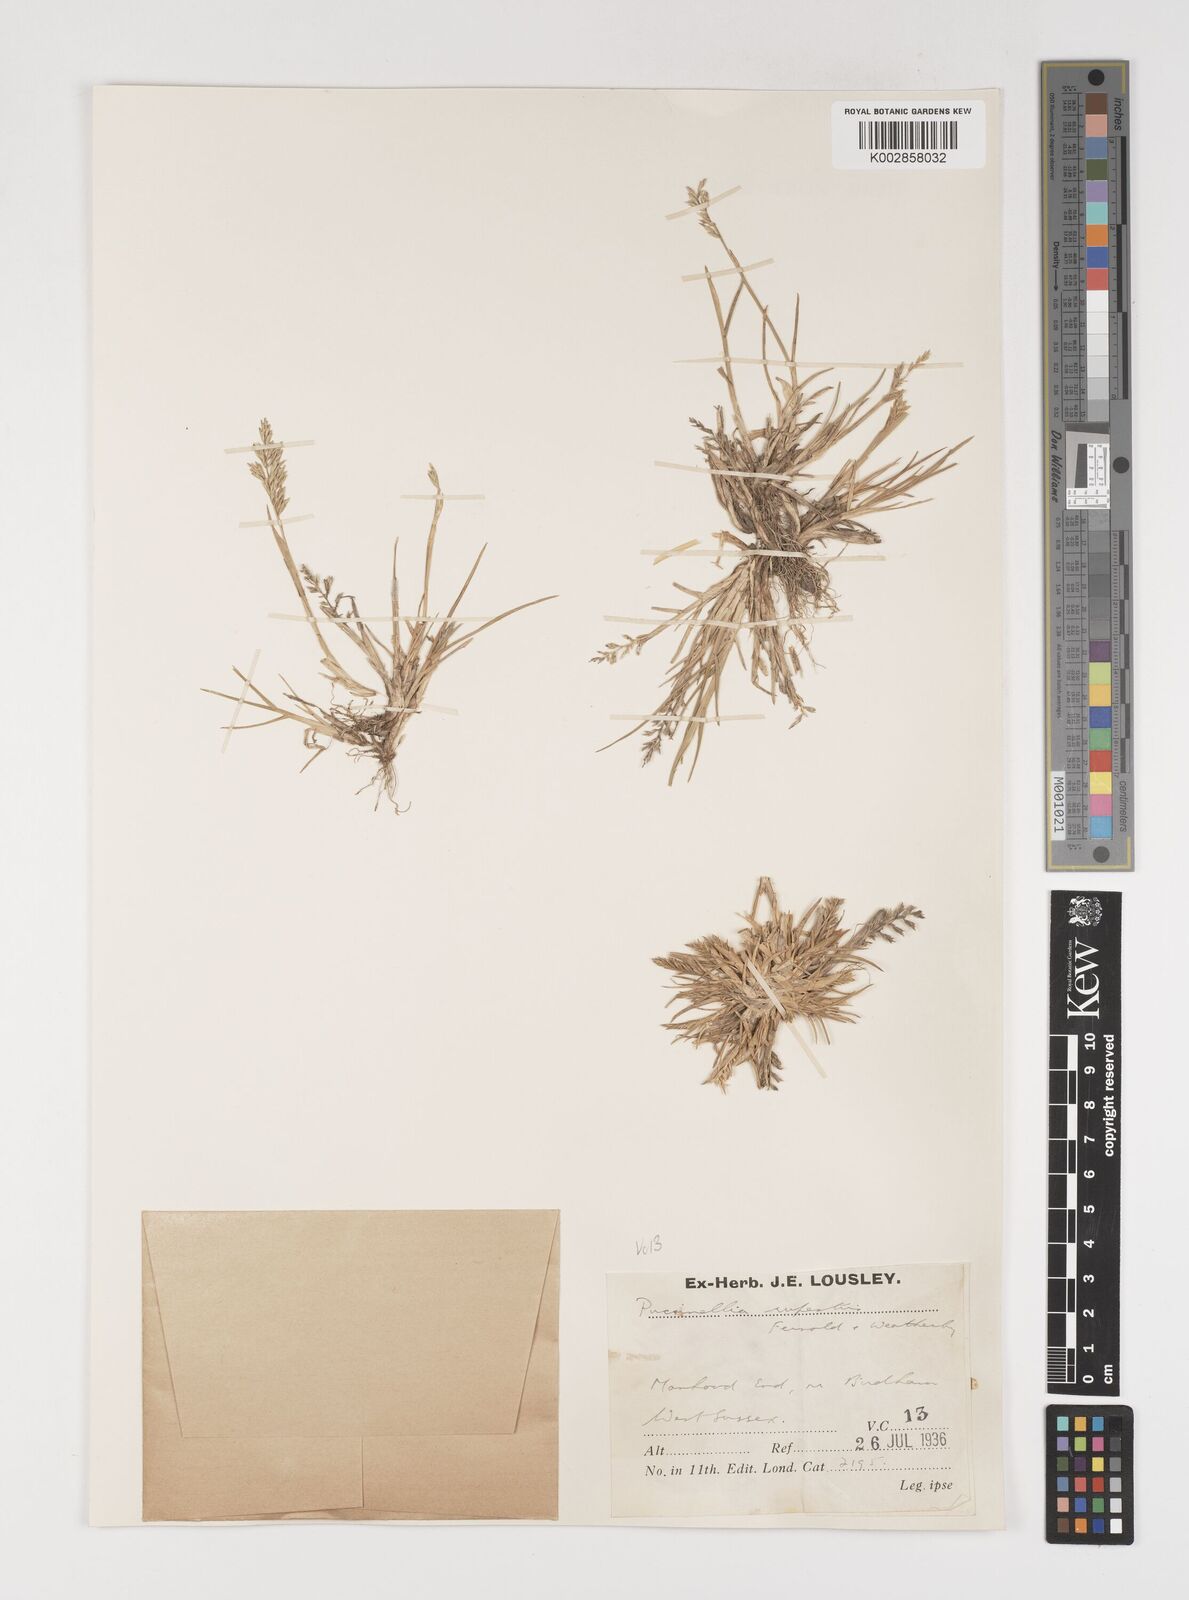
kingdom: Plantae
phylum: Tracheophyta
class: Liliopsida
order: Poales
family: Poaceae
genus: Puccinellia
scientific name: Puccinellia rupestris
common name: Stiff saltmarsh-grass
